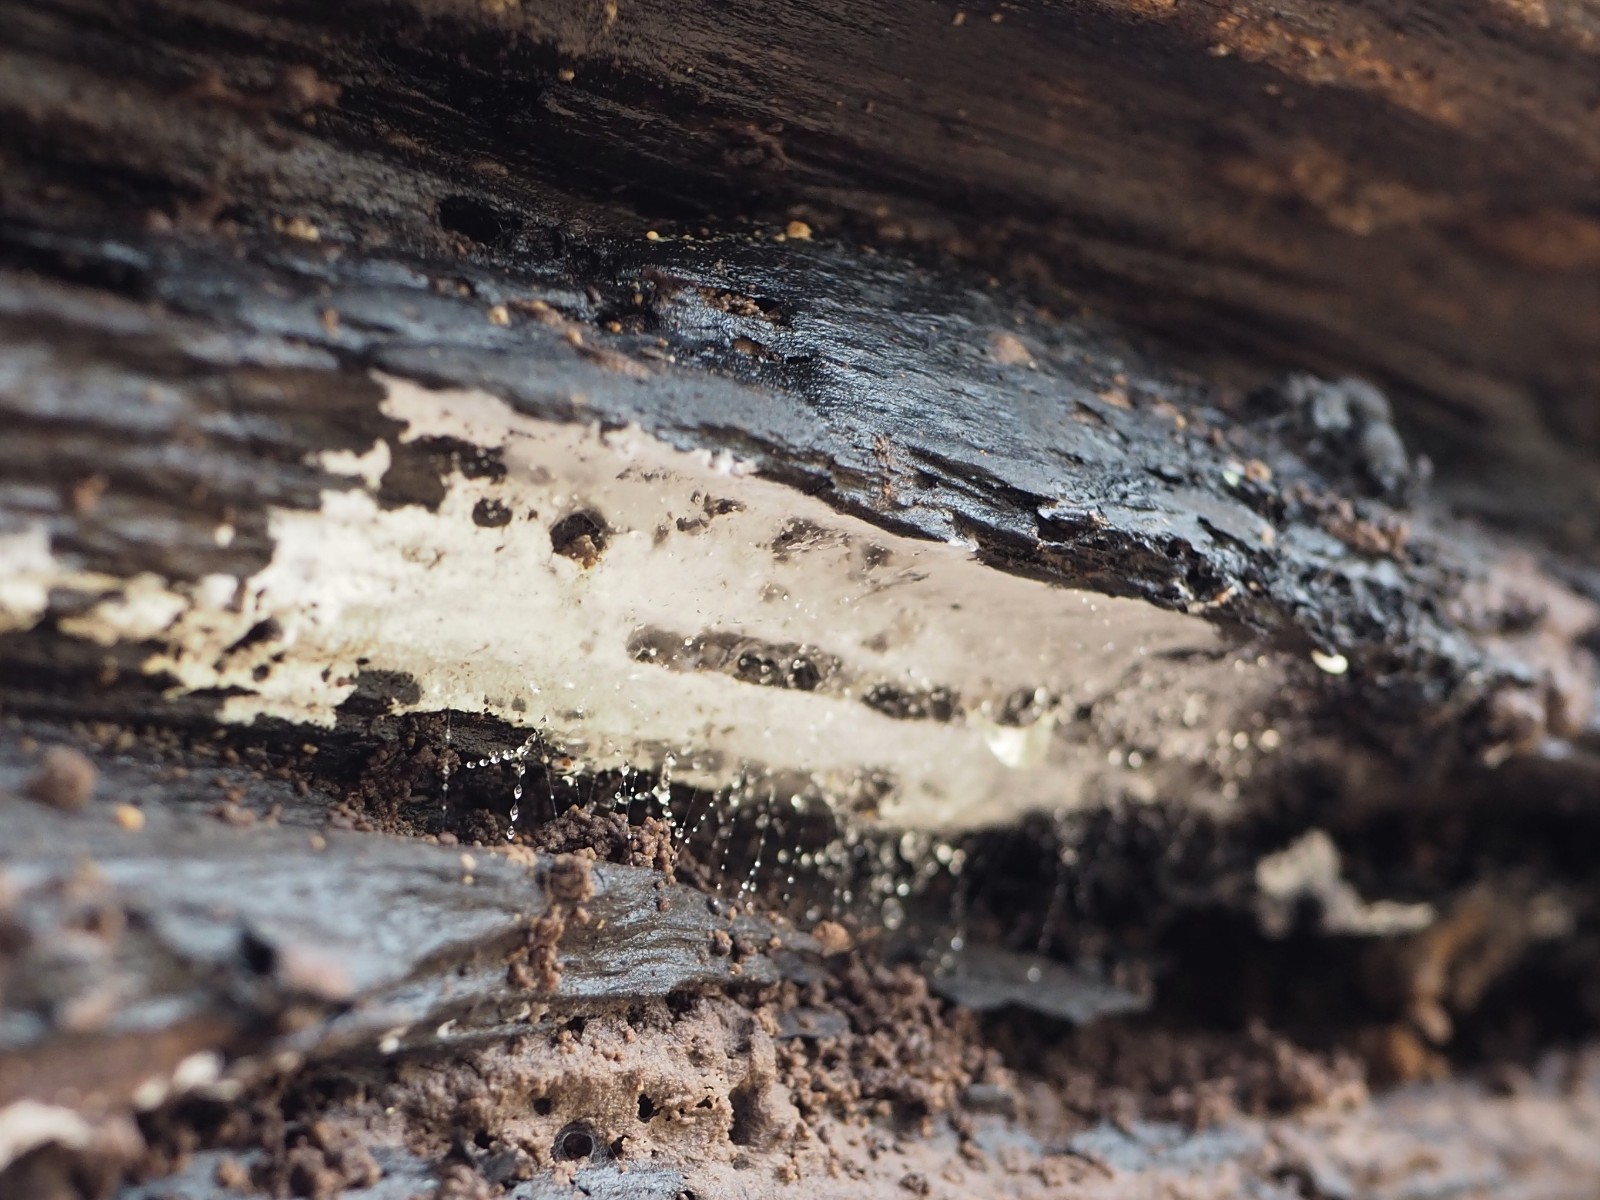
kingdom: Fungi
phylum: Basidiomycota
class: Agaricomycetes
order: Cantharellales
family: Botryobasidiaceae
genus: Botryobasidium
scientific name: Botryobasidium conspersum
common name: olivengrå spindhinde
